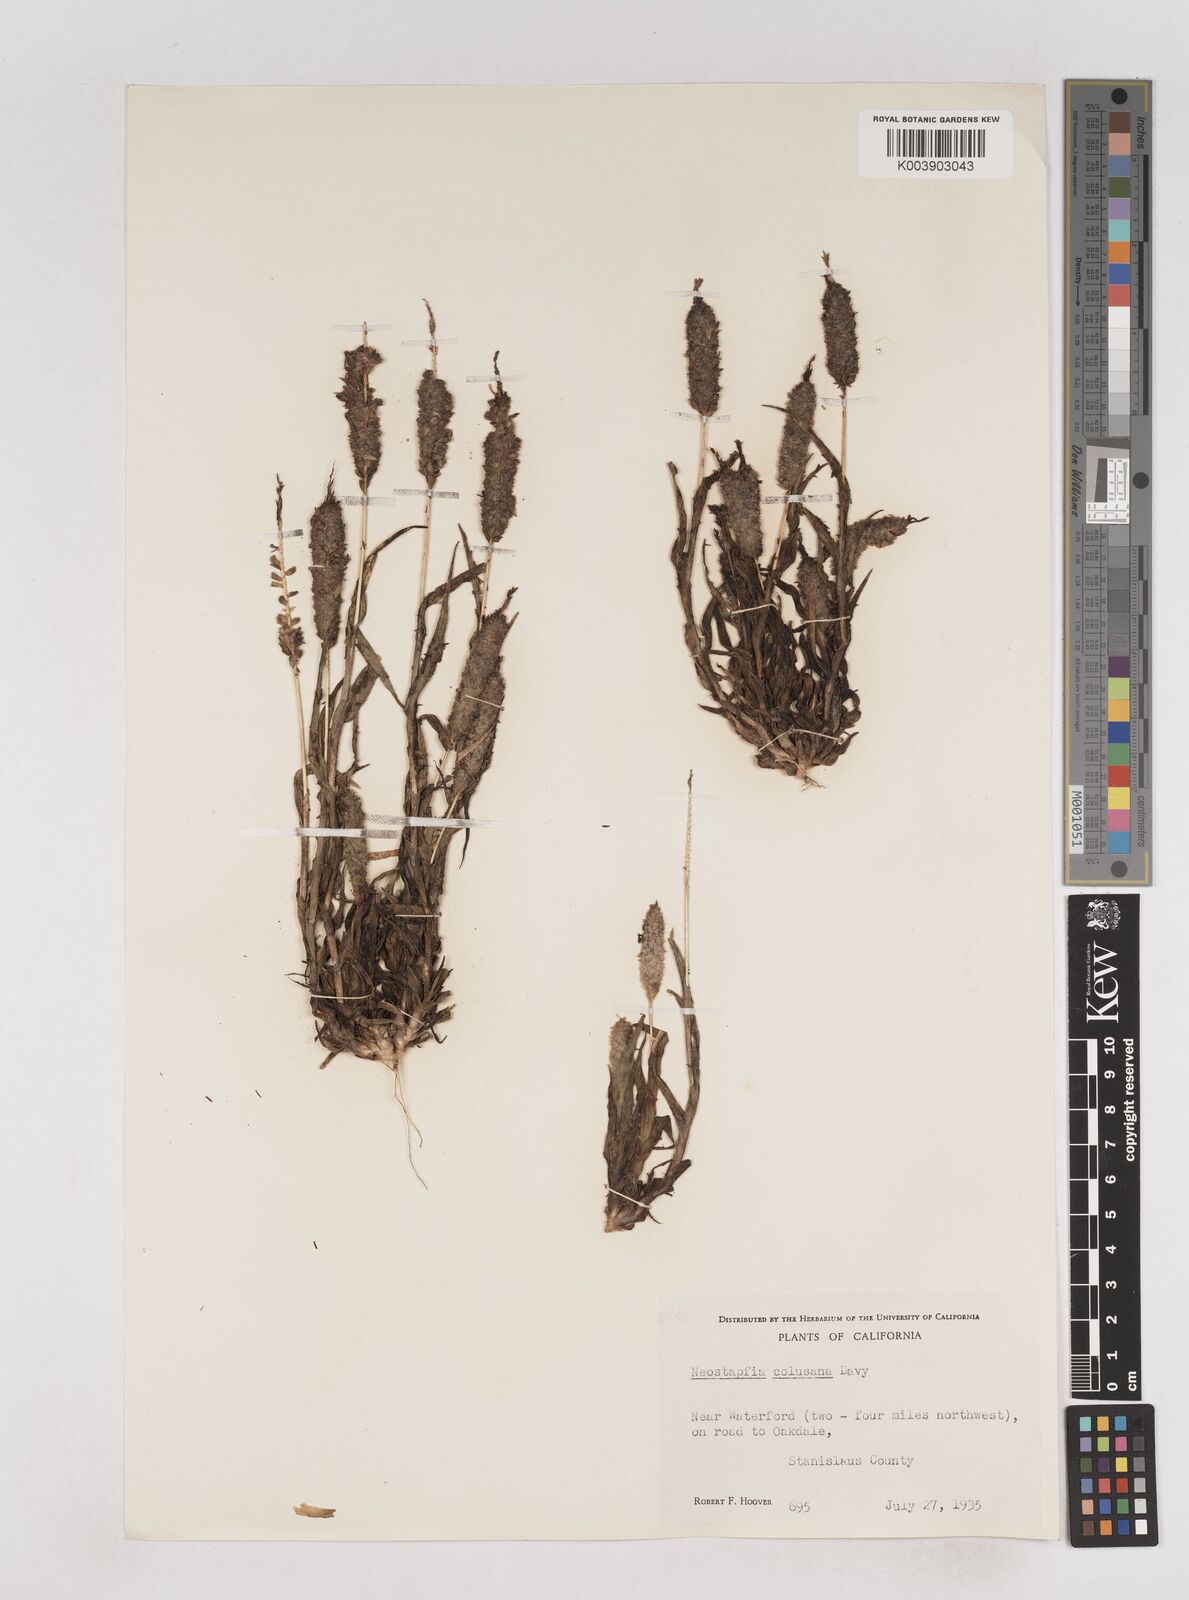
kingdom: Plantae
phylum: Tracheophyta
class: Liliopsida
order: Poales
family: Poaceae
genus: Neostapfia
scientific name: Neostapfia colusana
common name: Colusa grass
